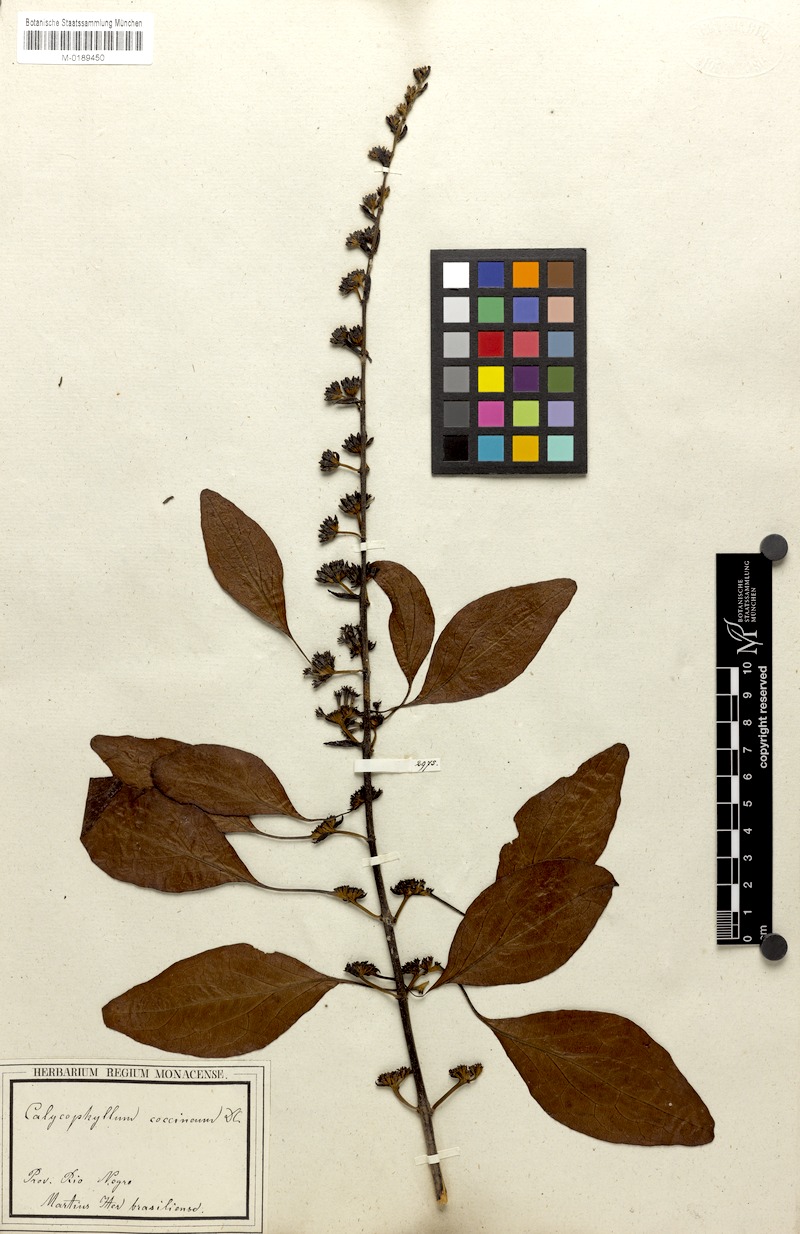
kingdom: Plantae
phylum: Tracheophyta
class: Magnoliopsida
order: Gentianales
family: Rubiaceae
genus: Warszewiczia
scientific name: Warszewiczia coccinea
